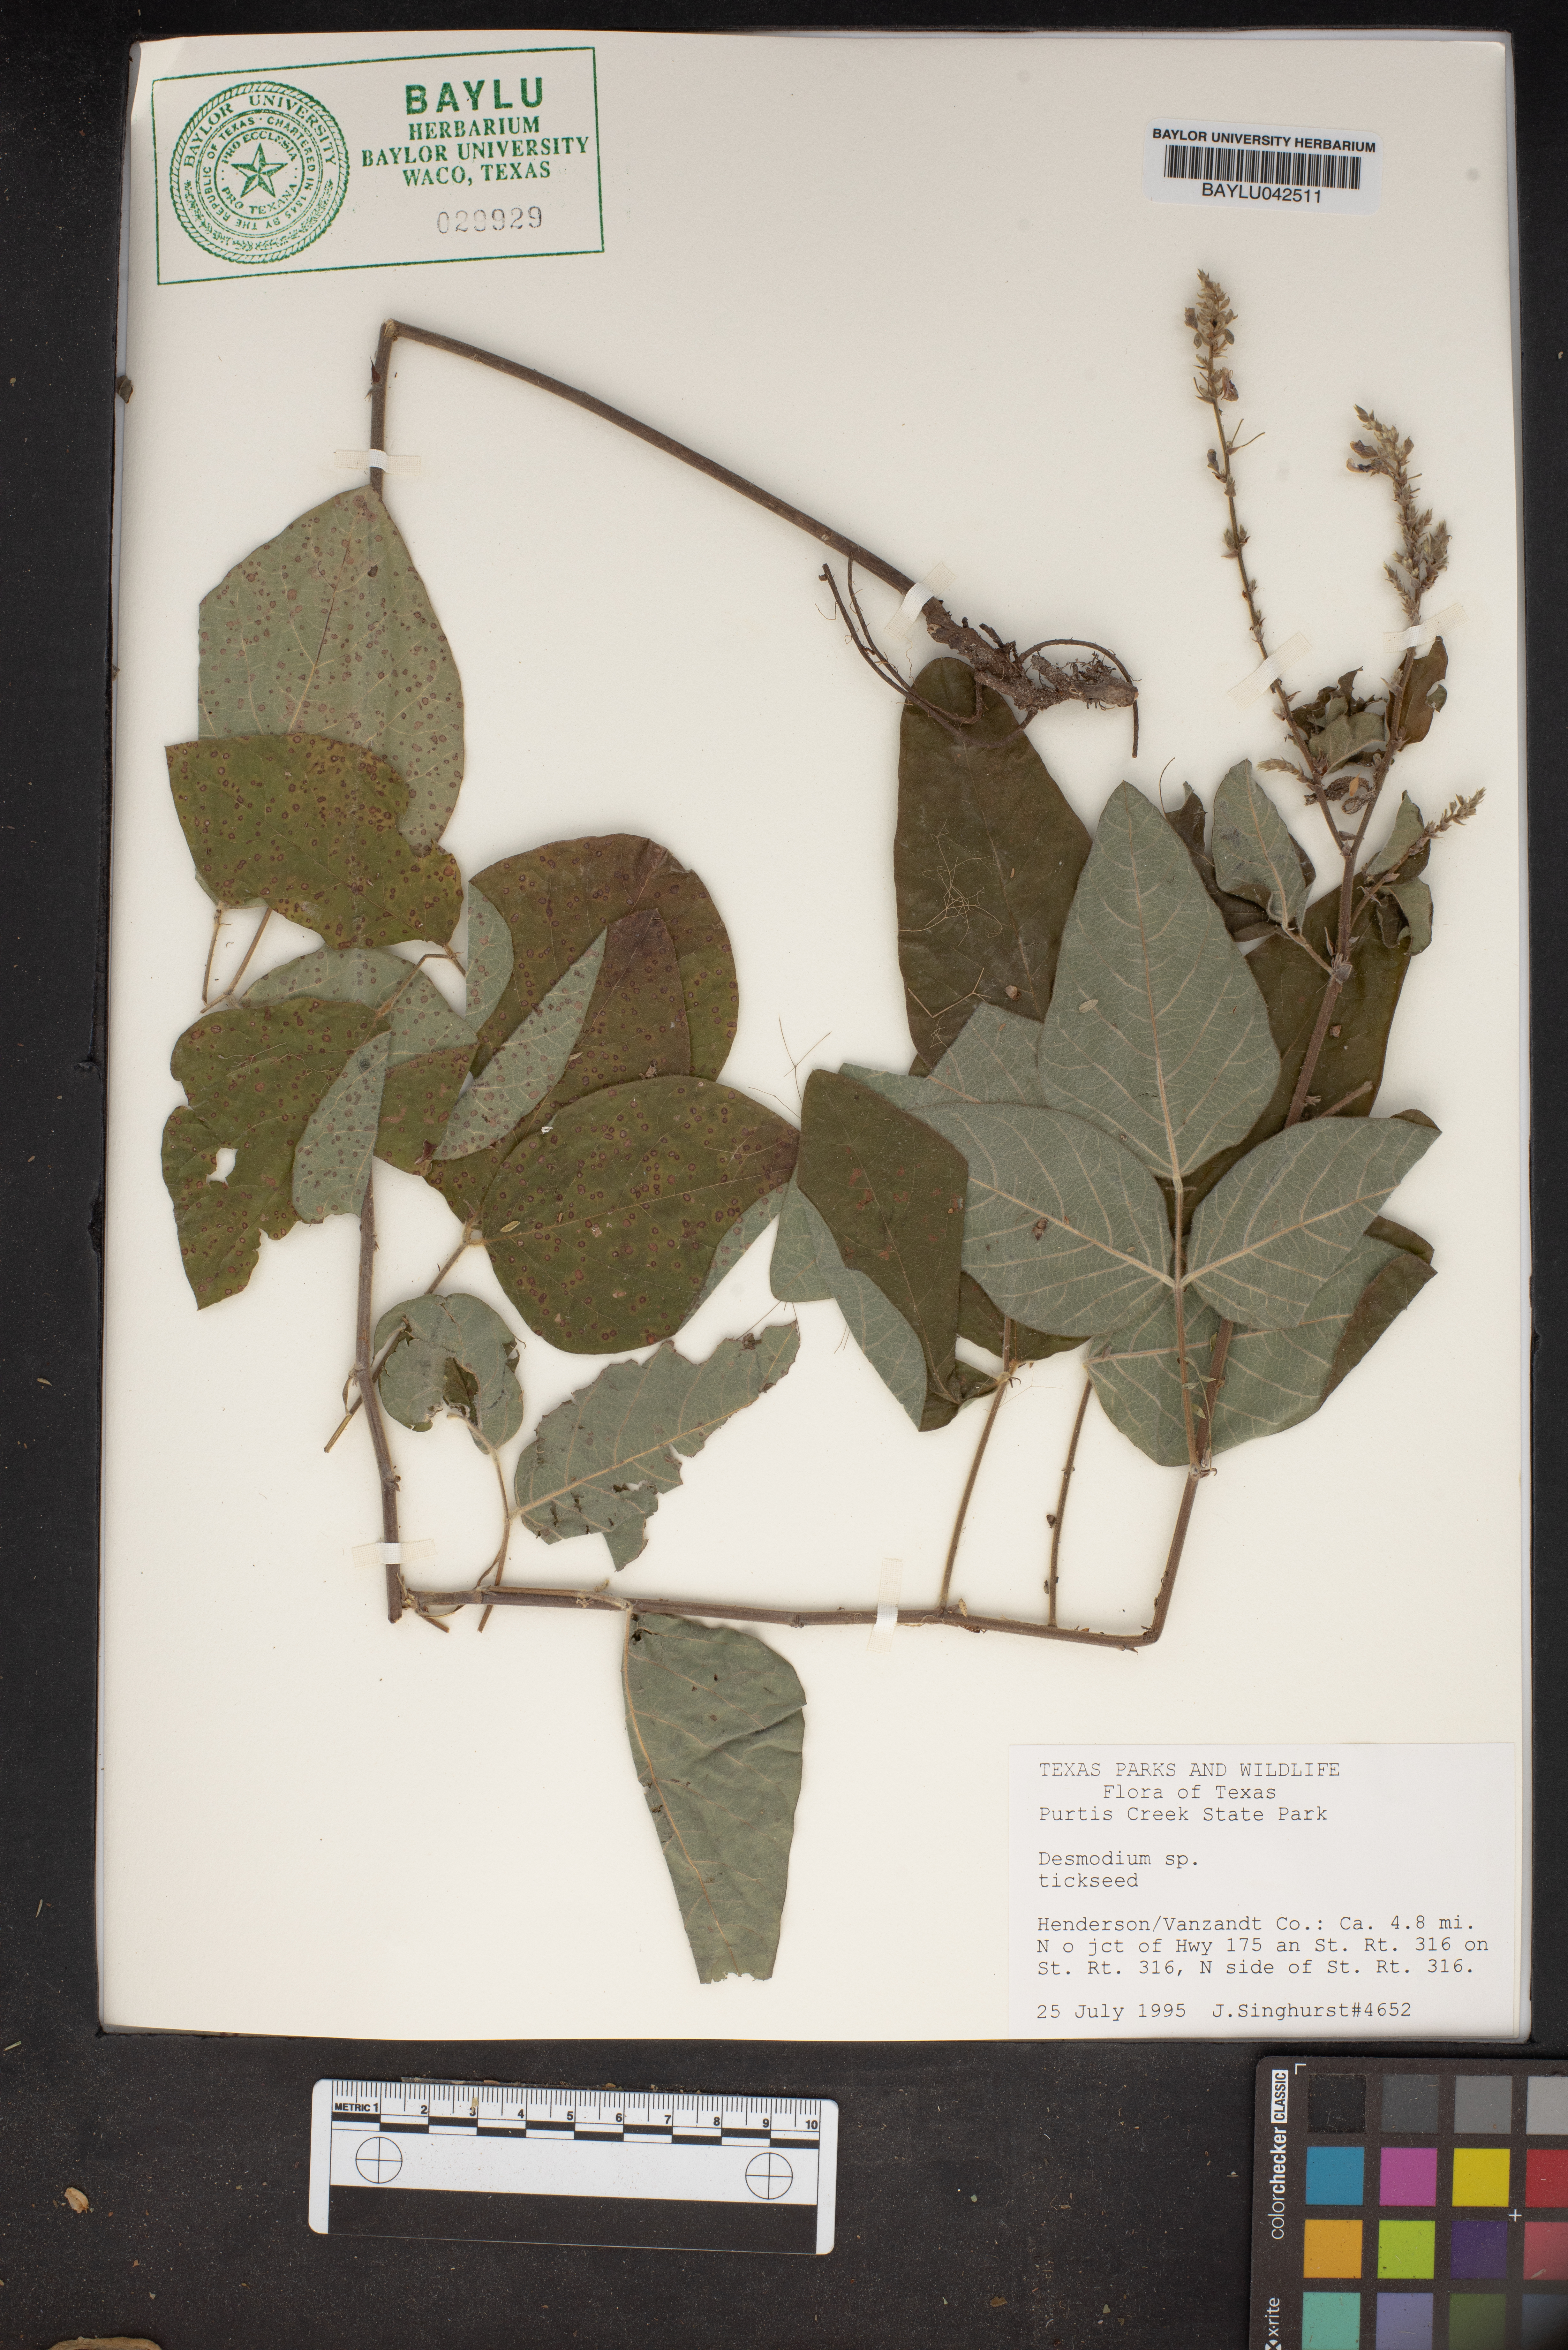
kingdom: Plantae
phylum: Tracheophyta
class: Magnoliopsida
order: Fabales
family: Fabaceae
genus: Desmodium
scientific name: Desmodium
